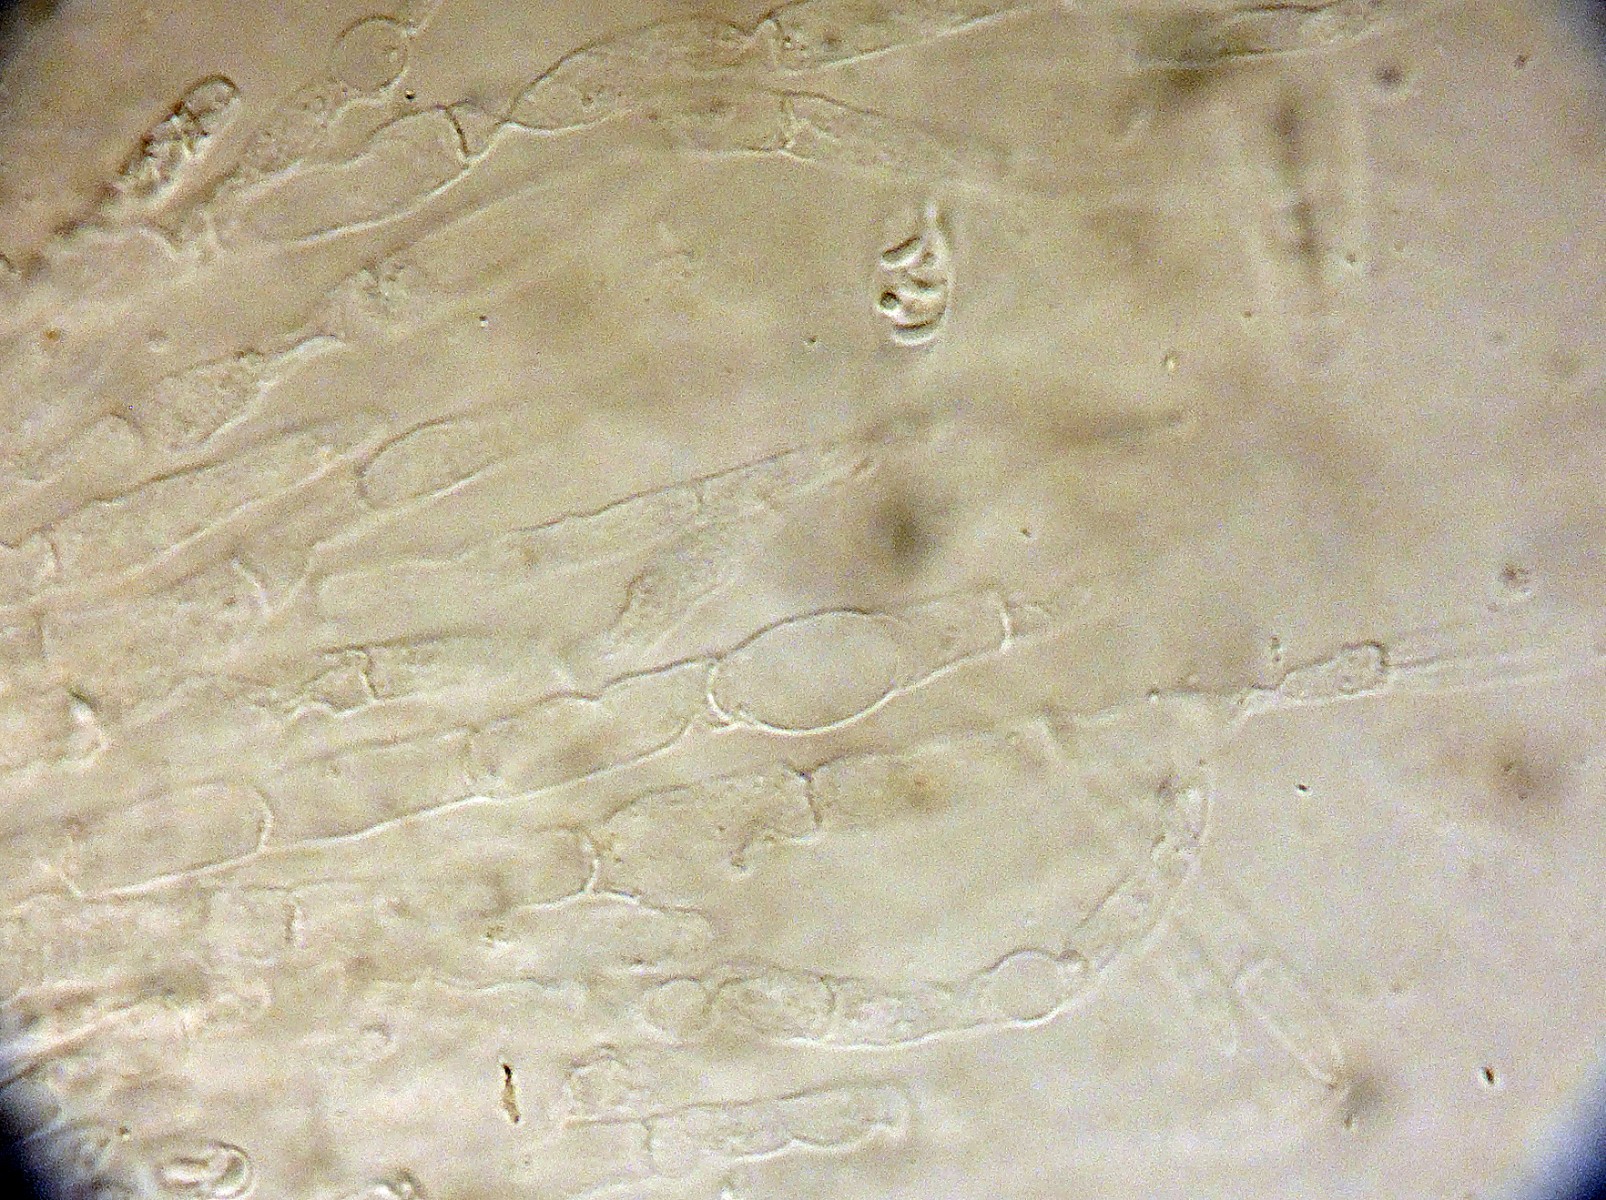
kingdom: Fungi
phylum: Ascomycota
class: Sordariomycetes
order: Boliniales
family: Boliniaceae
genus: Ceratostomella
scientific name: Ceratostomella rostrata
